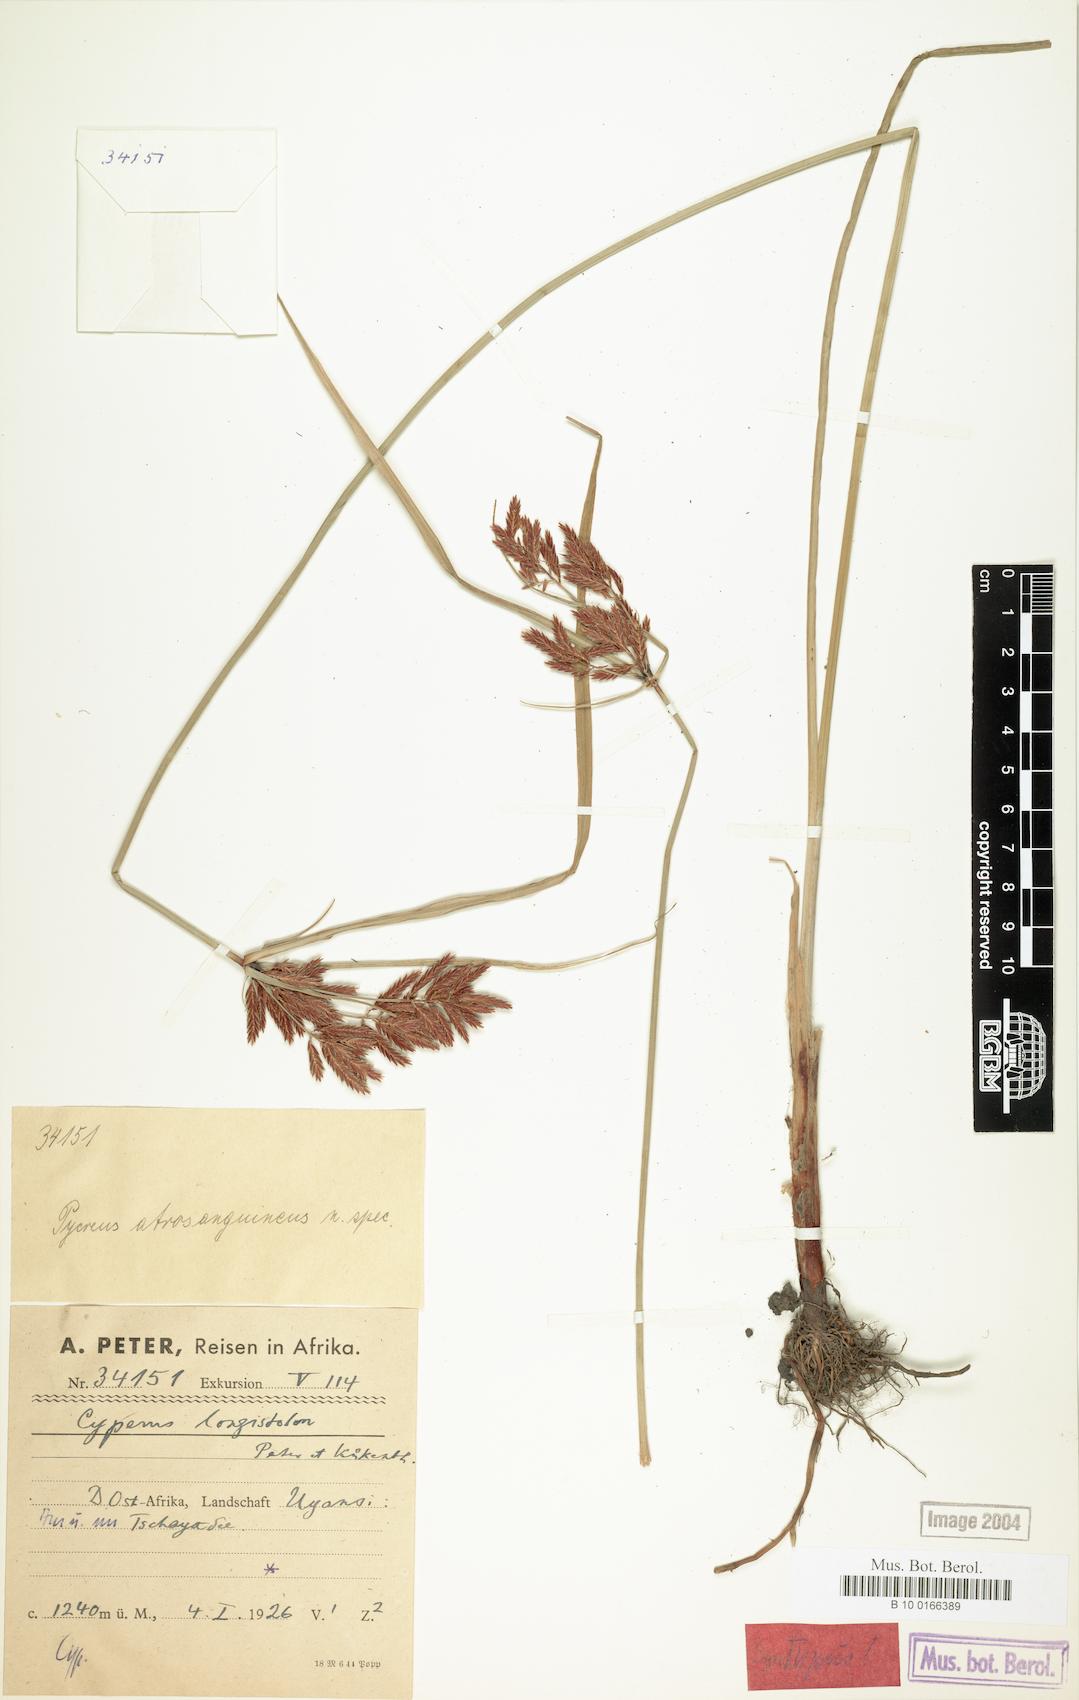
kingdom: Plantae
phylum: Tracheophyta
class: Liliopsida
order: Poales
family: Cyperaceae
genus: Cyperus
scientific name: Cyperus chrysanthus
